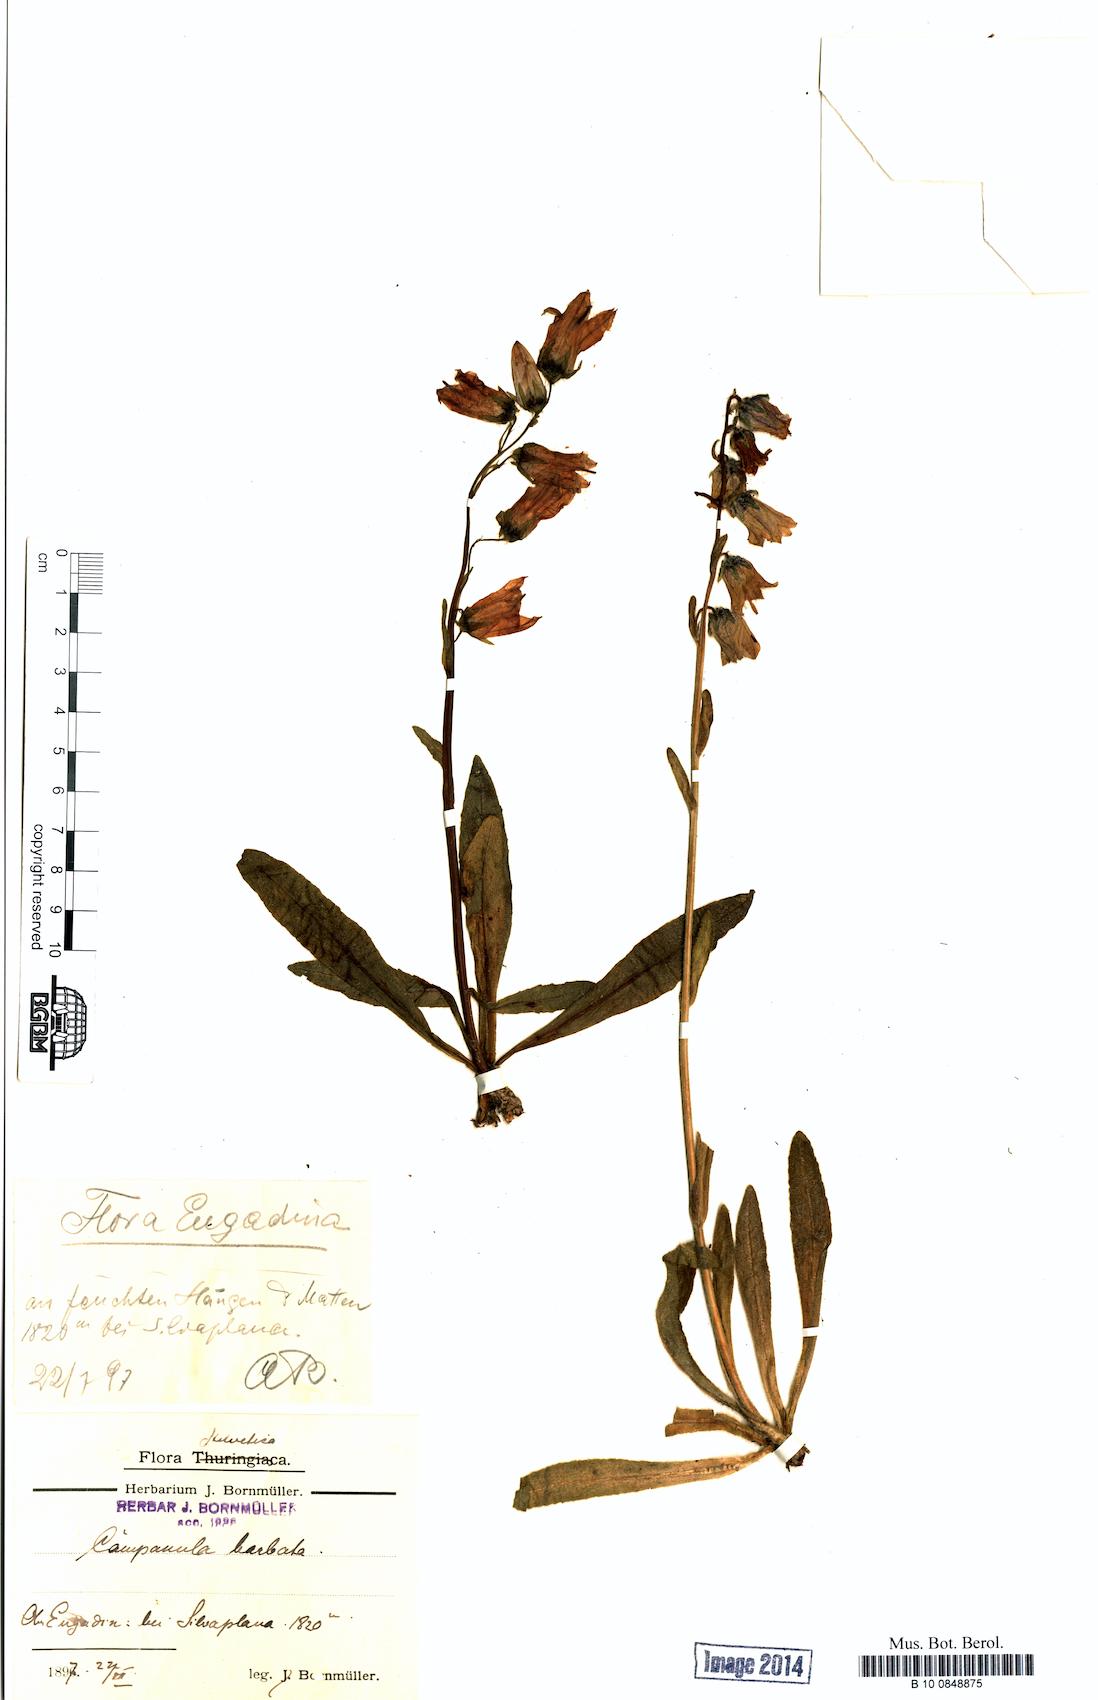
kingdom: Plantae
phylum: Tracheophyta
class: Magnoliopsida
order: Asterales
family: Campanulaceae
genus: Campanula
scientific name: Campanula barbata
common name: Bearded bellflower
